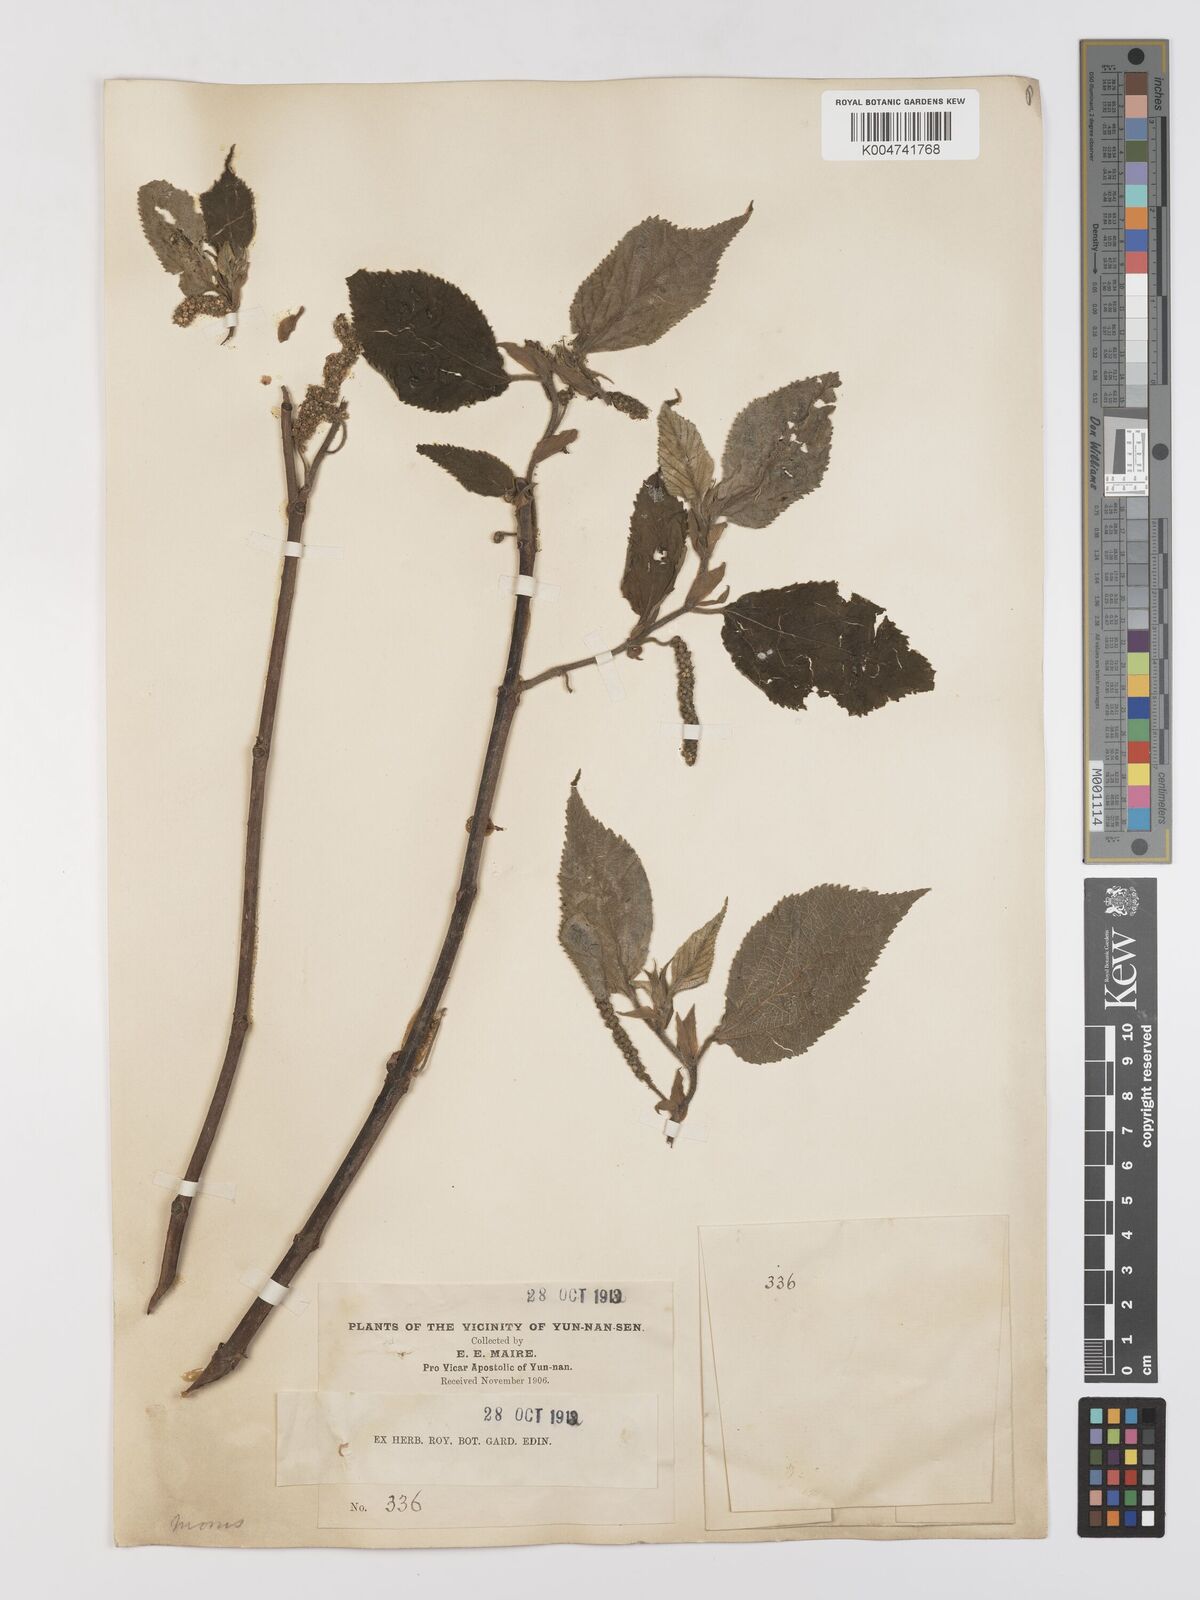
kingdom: Plantae
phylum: Tracheophyta
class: Magnoliopsida
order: Rosales
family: Moraceae
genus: Broussonetia
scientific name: Broussonetia
